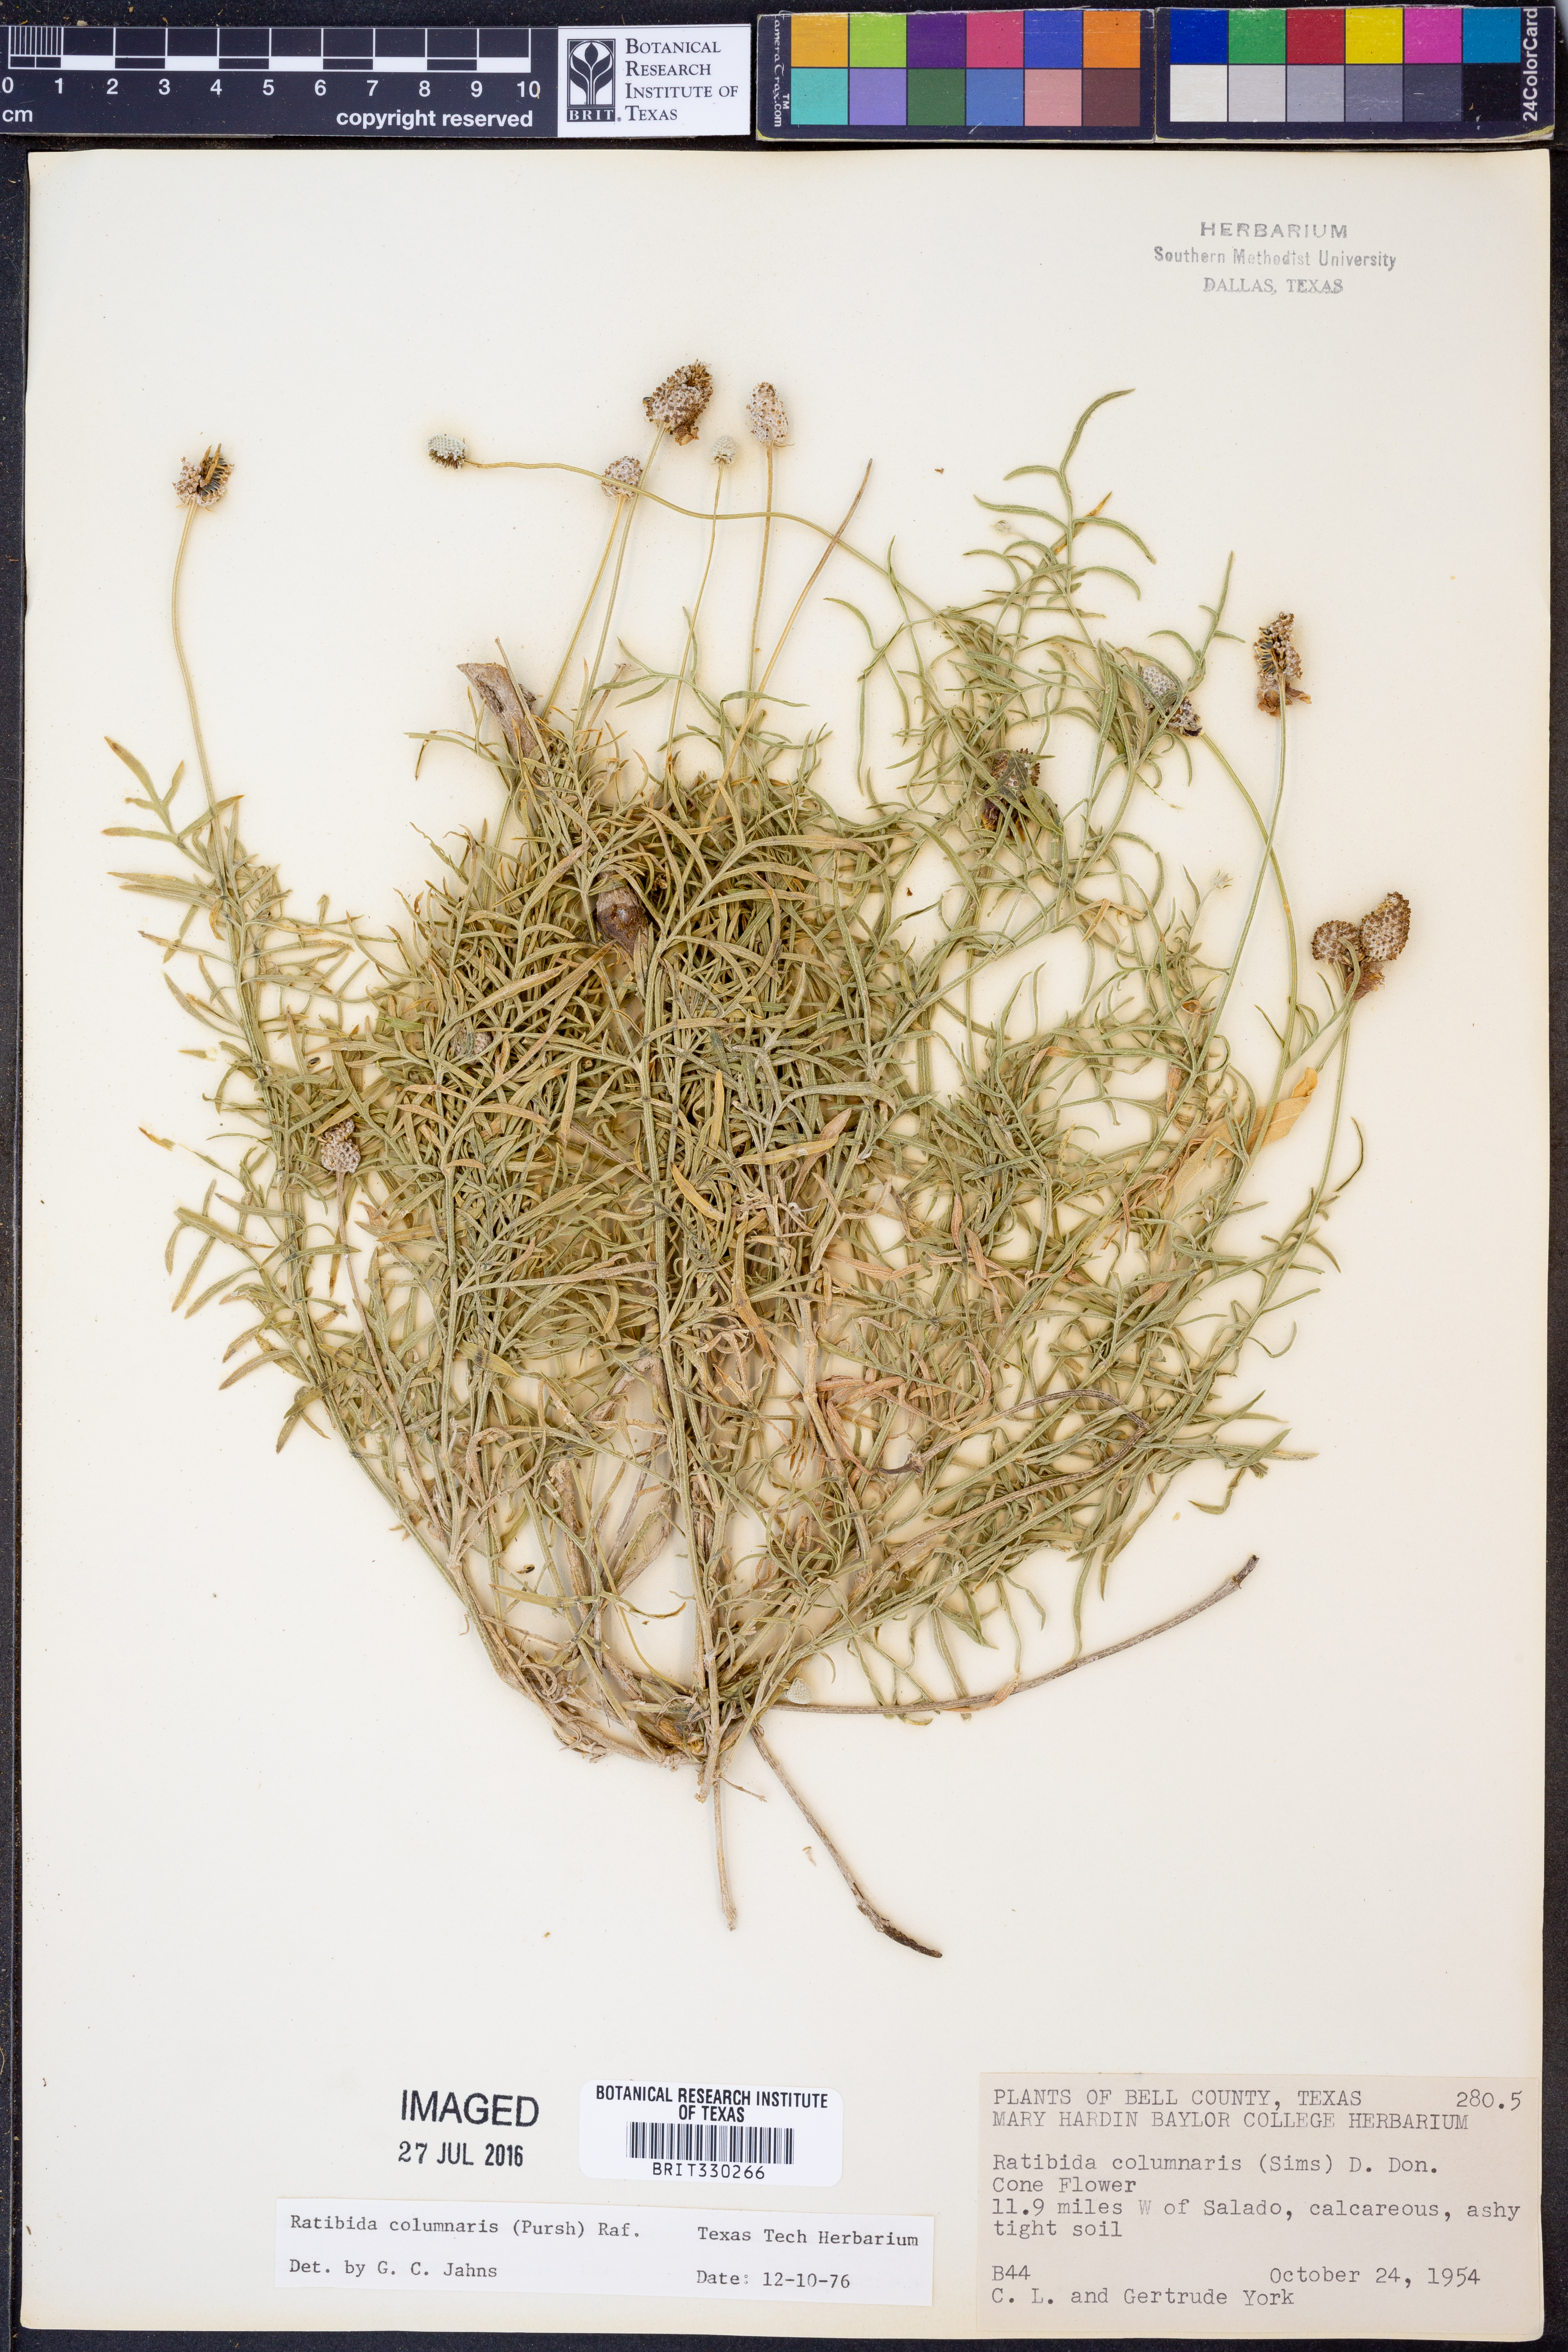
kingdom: Plantae
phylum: Tracheophyta
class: Magnoliopsida
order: Asterales
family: Asteraceae
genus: Ratibida
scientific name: Ratibida columnifera
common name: Prairie coneflower
